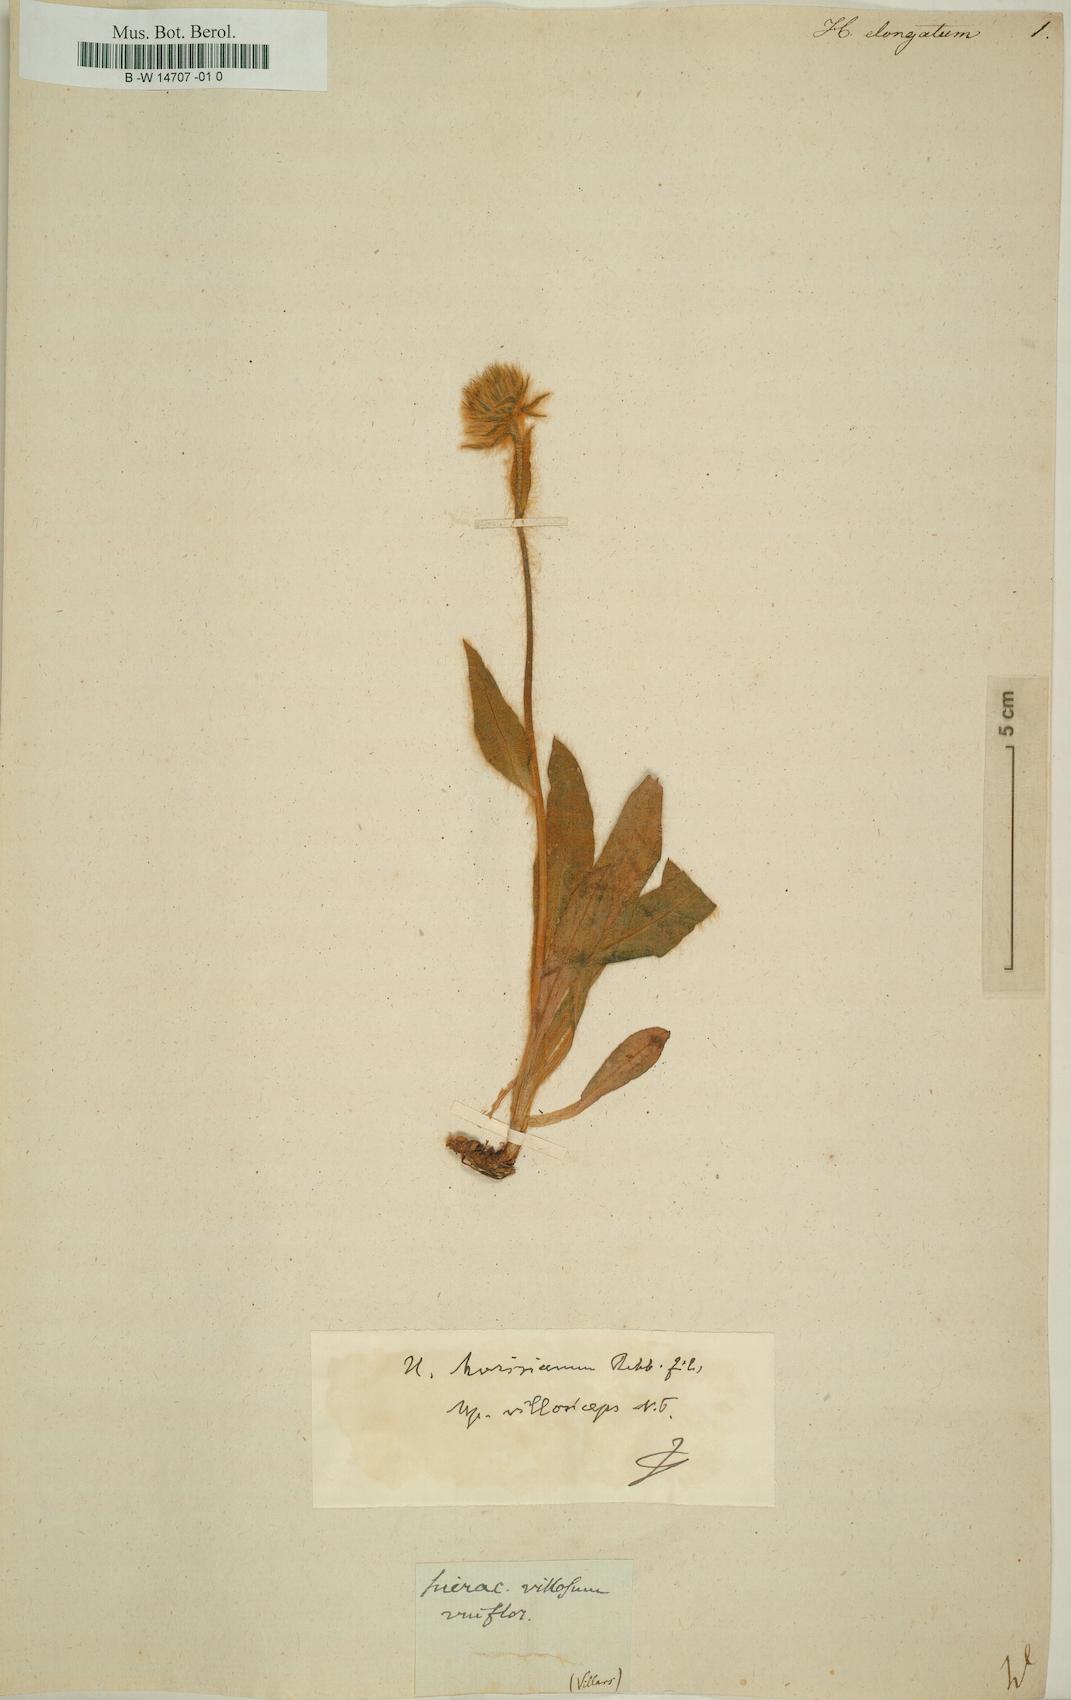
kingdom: Plantae
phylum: Tracheophyta
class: Magnoliopsida
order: Asterales
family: Asteraceae
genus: Hieracium
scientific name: Hieracium valdepilosum
